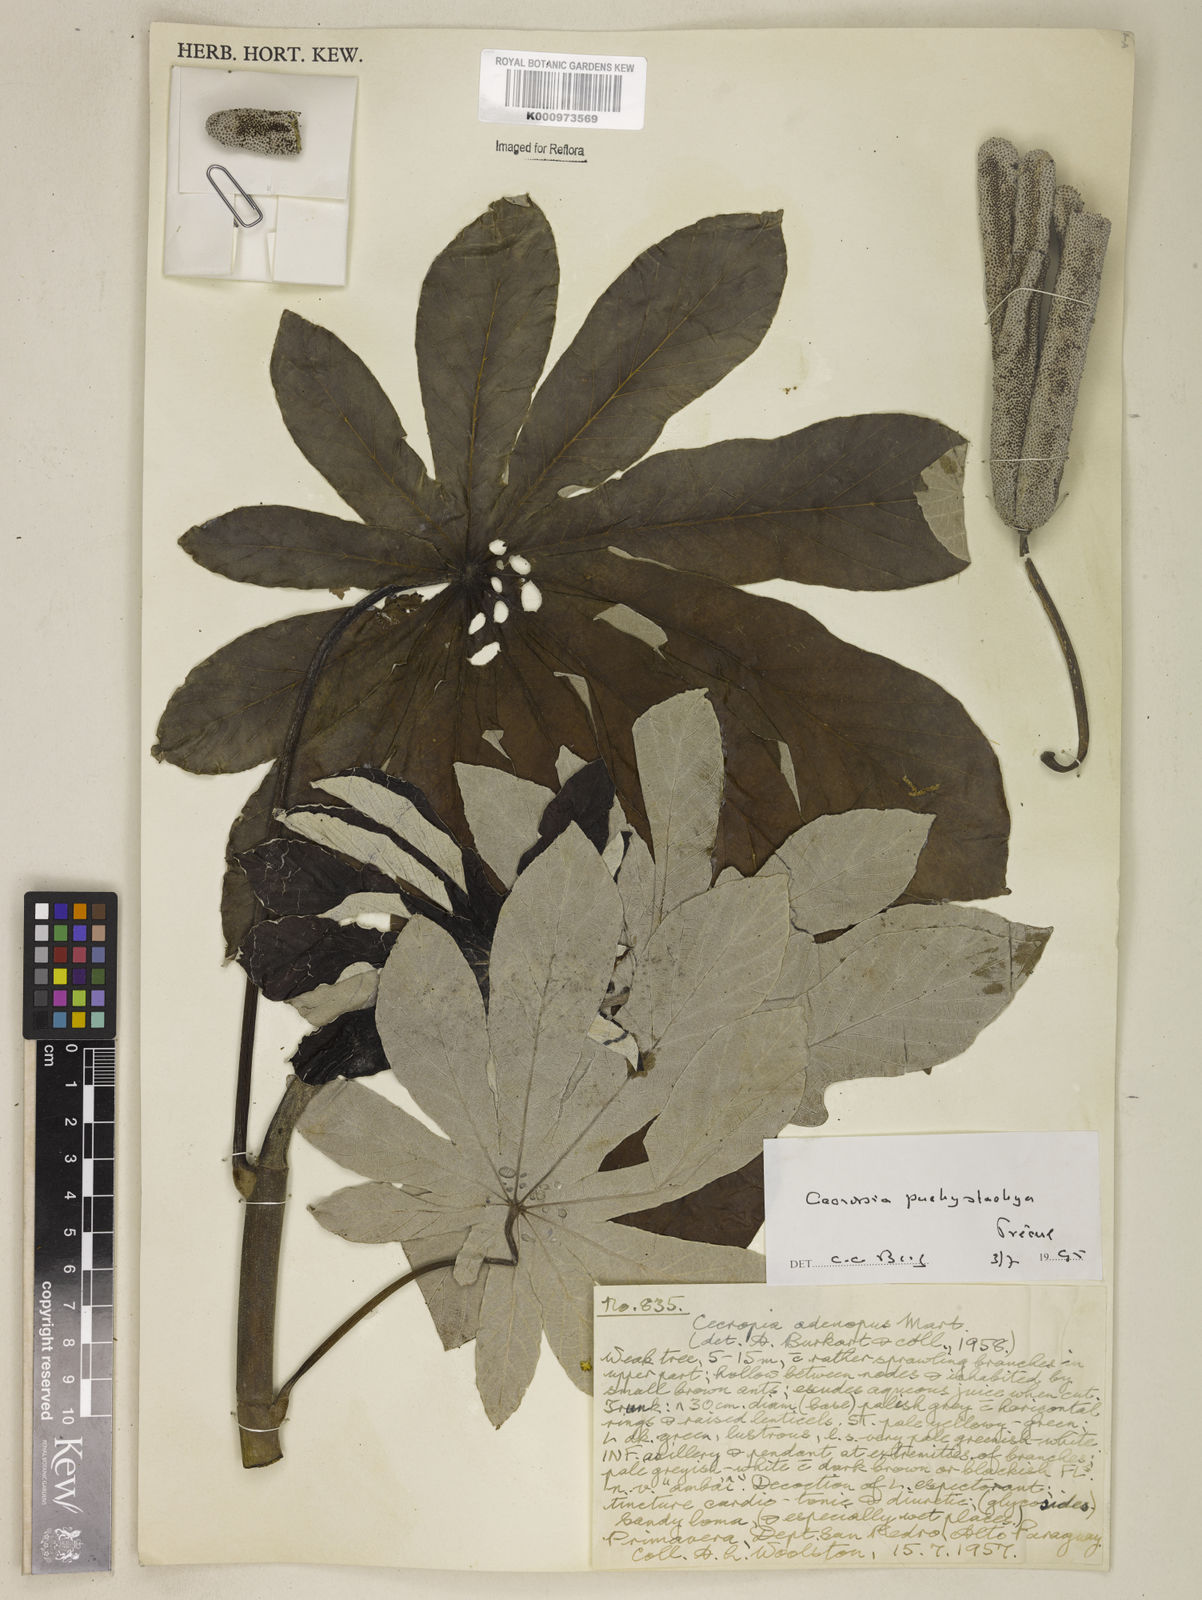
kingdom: Plantae
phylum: Tracheophyta
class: Magnoliopsida
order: Rosales
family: Urticaceae
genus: Cecropia
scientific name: Cecropia
